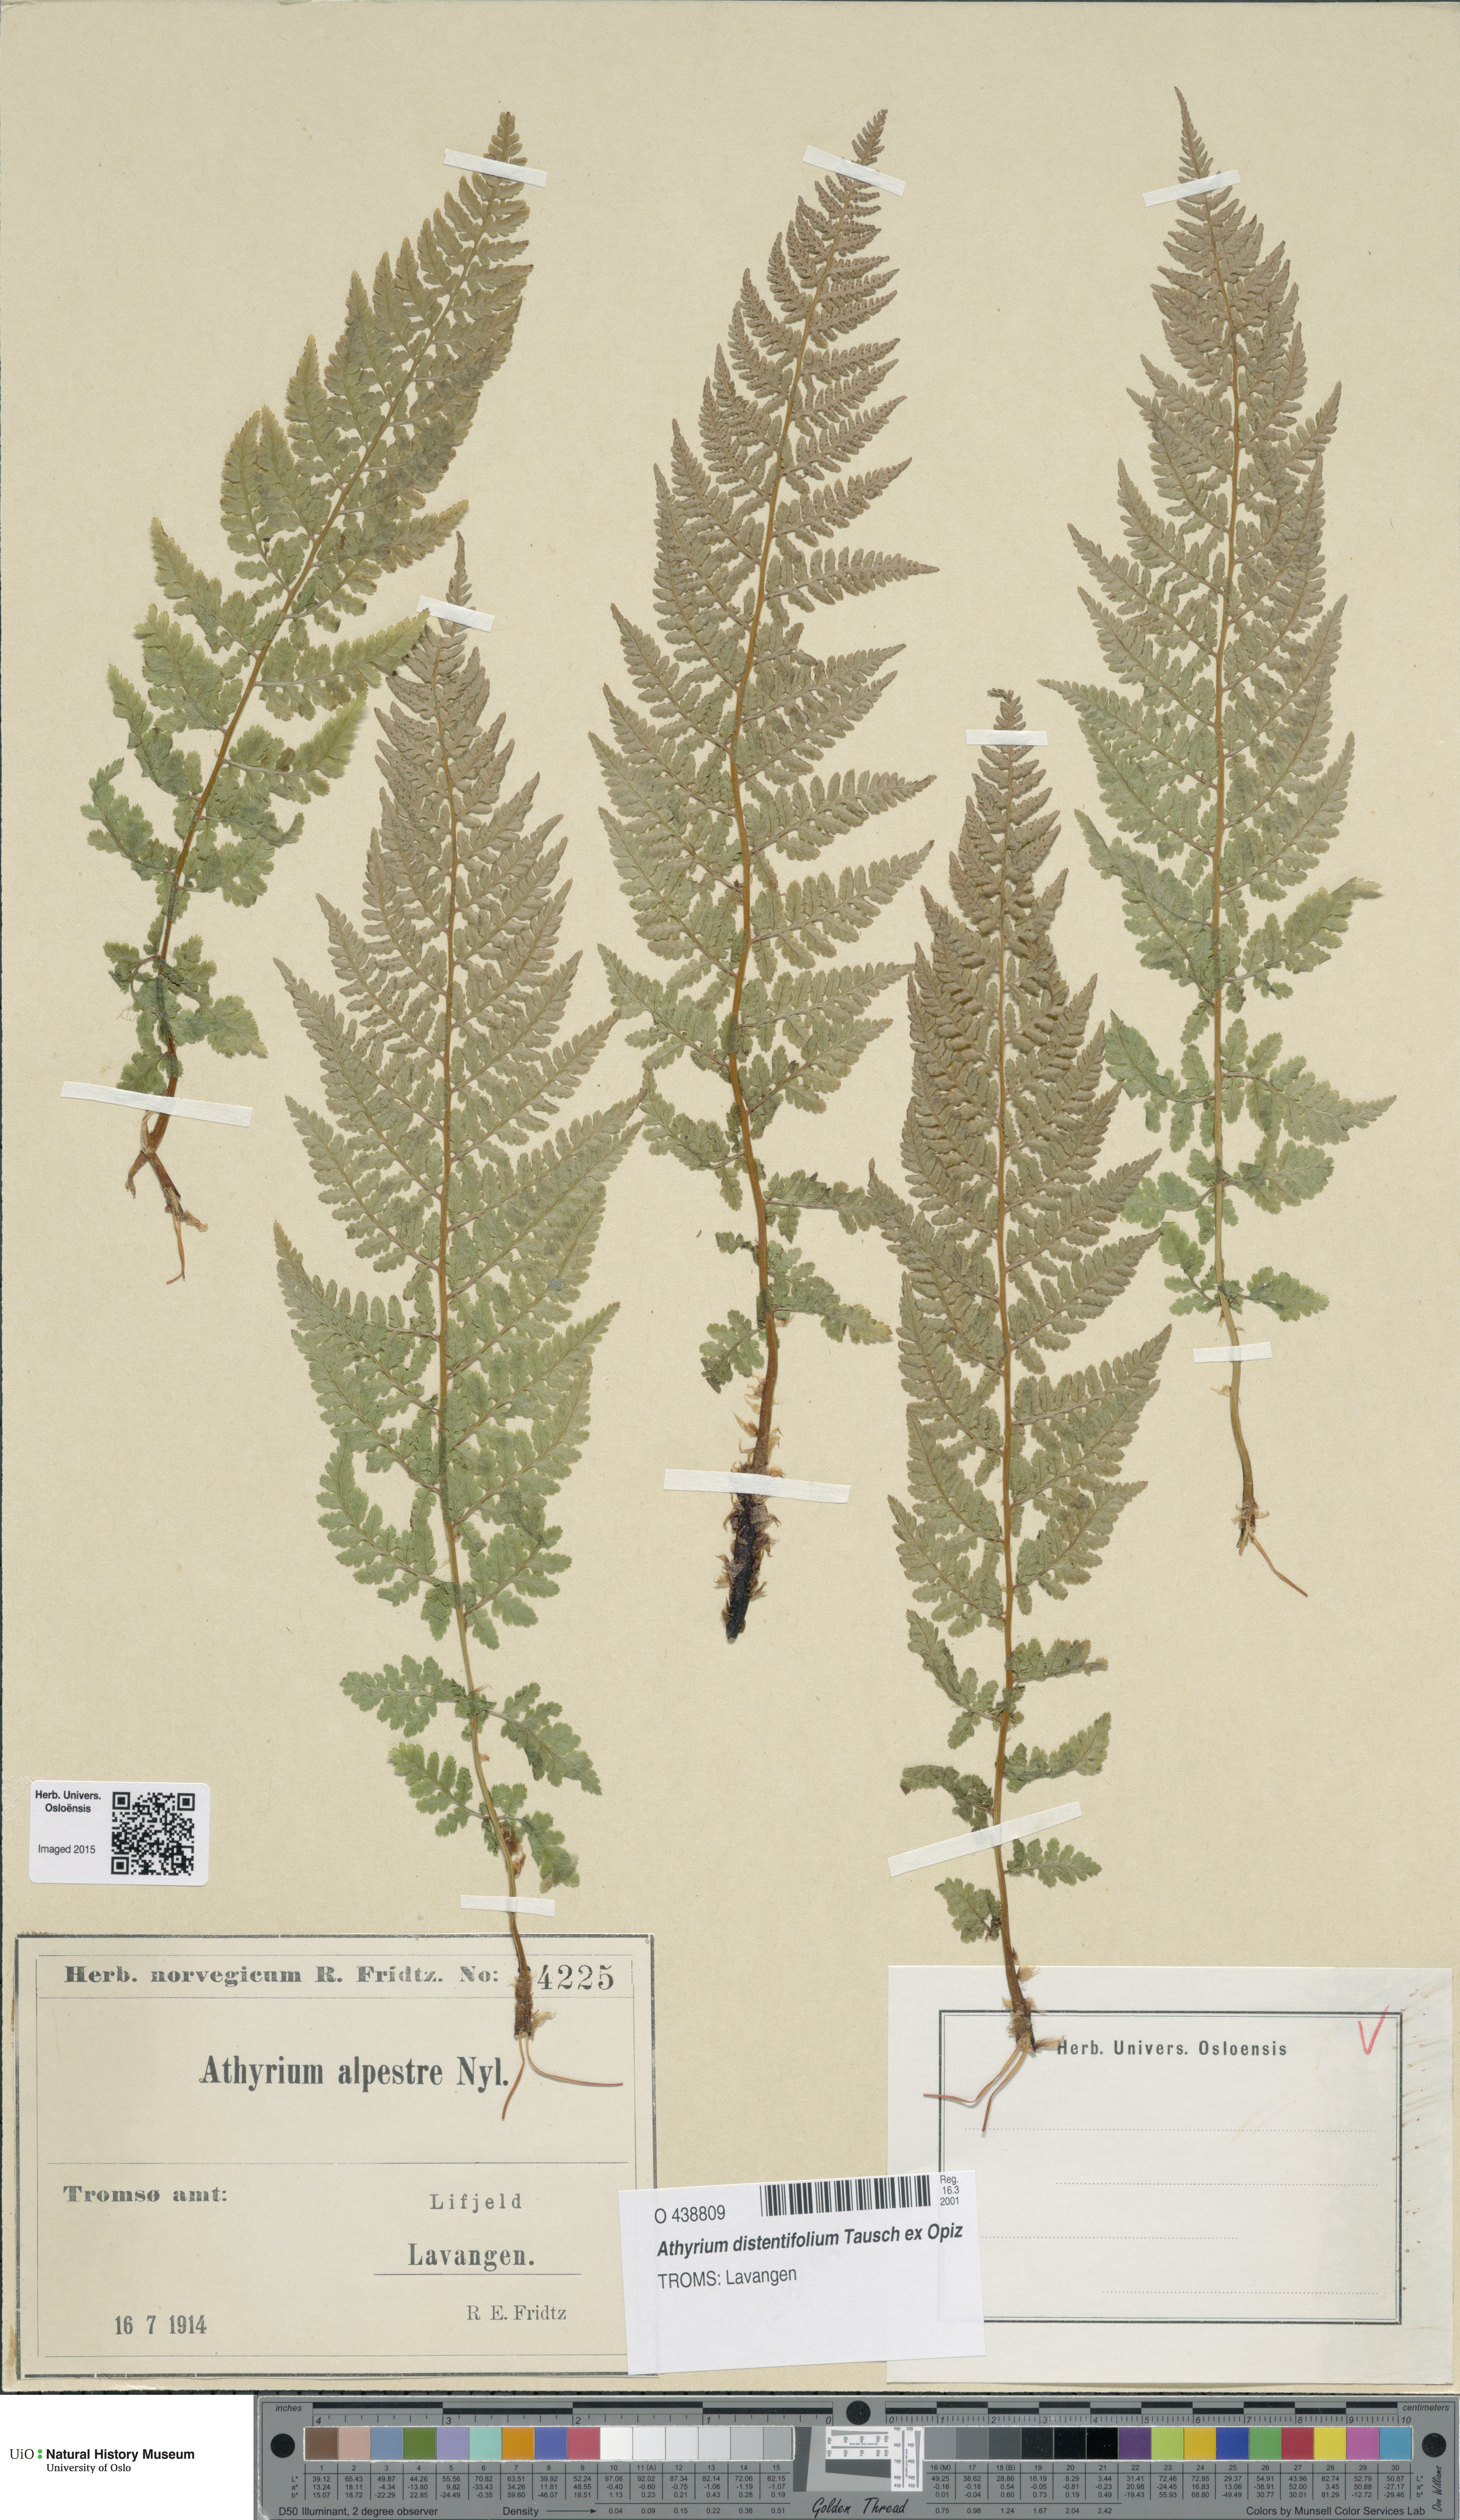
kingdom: Plantae
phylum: Tracheophyta
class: Polypodiopsida
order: Polypodiales
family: Athyriaceae
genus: Pseudathyrium
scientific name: Pseudathyrium alpestre
